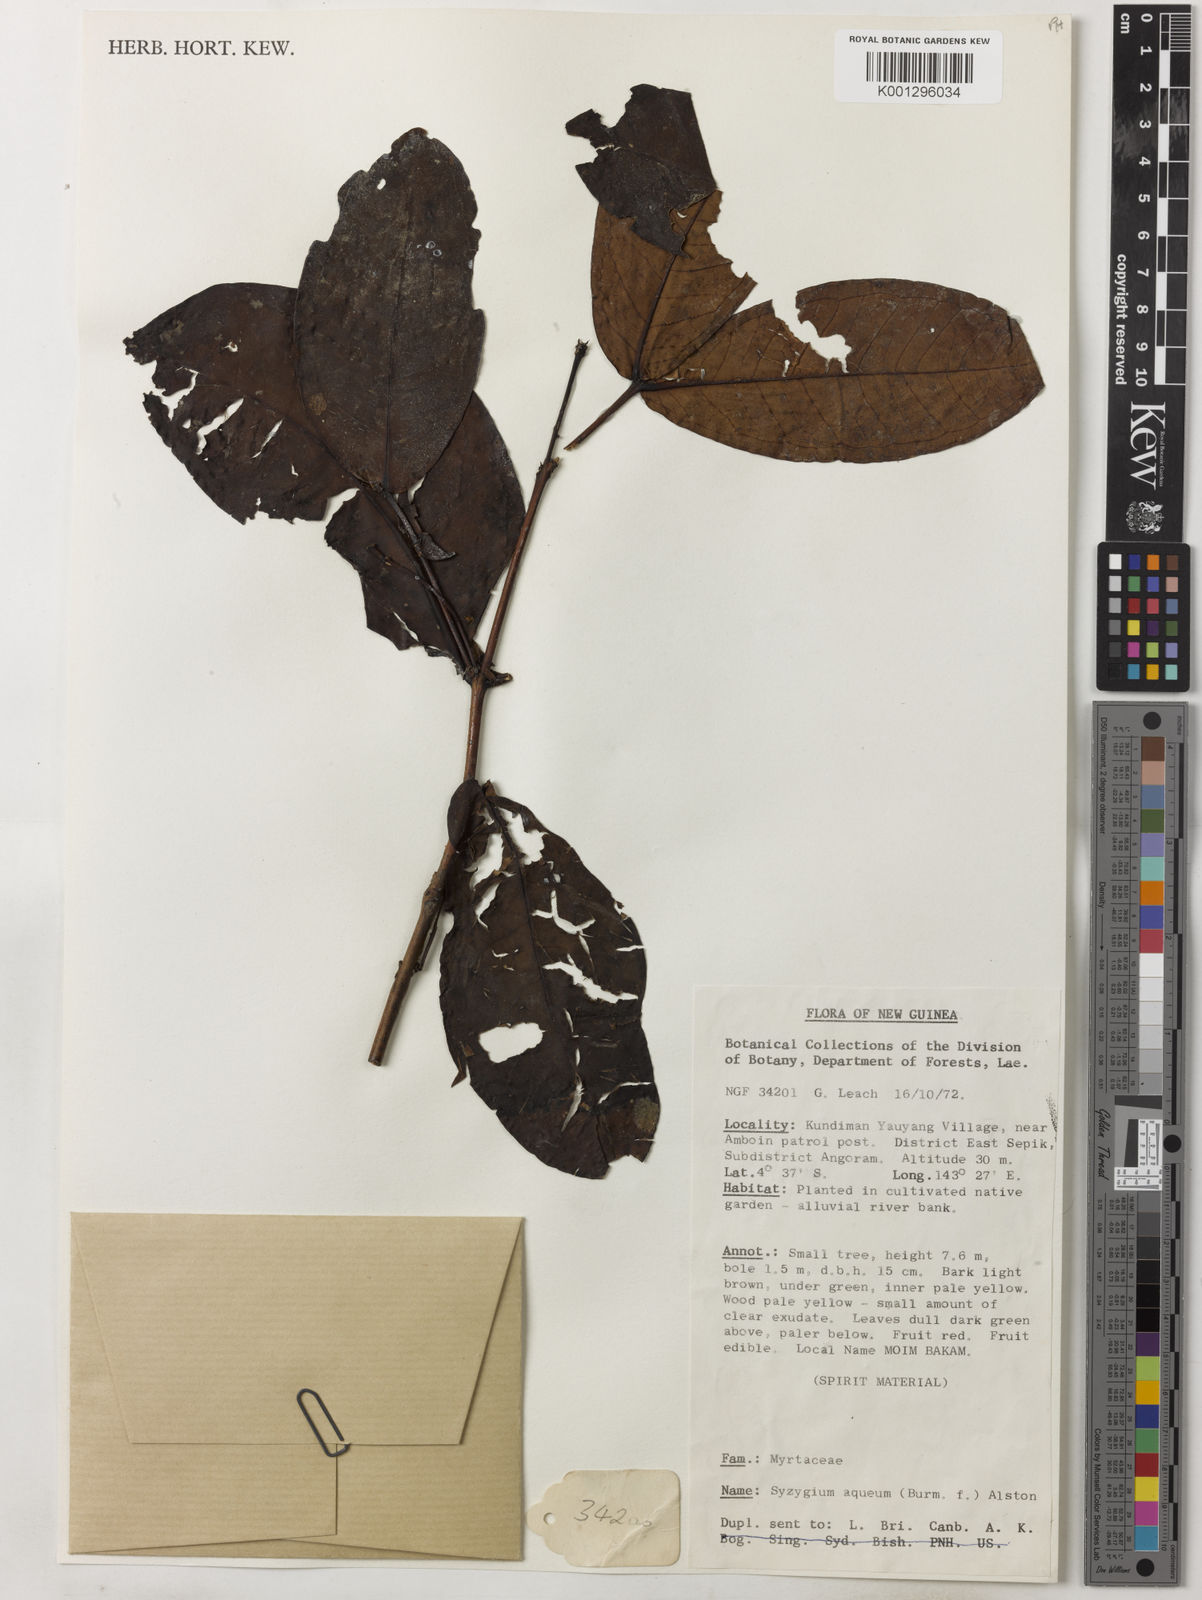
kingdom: Plantae
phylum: Tracheophyta
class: Magnoliopsida
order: Myrtales
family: Myrtaceae
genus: Syzygium
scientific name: Syzygium aqueum
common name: Water-apple
